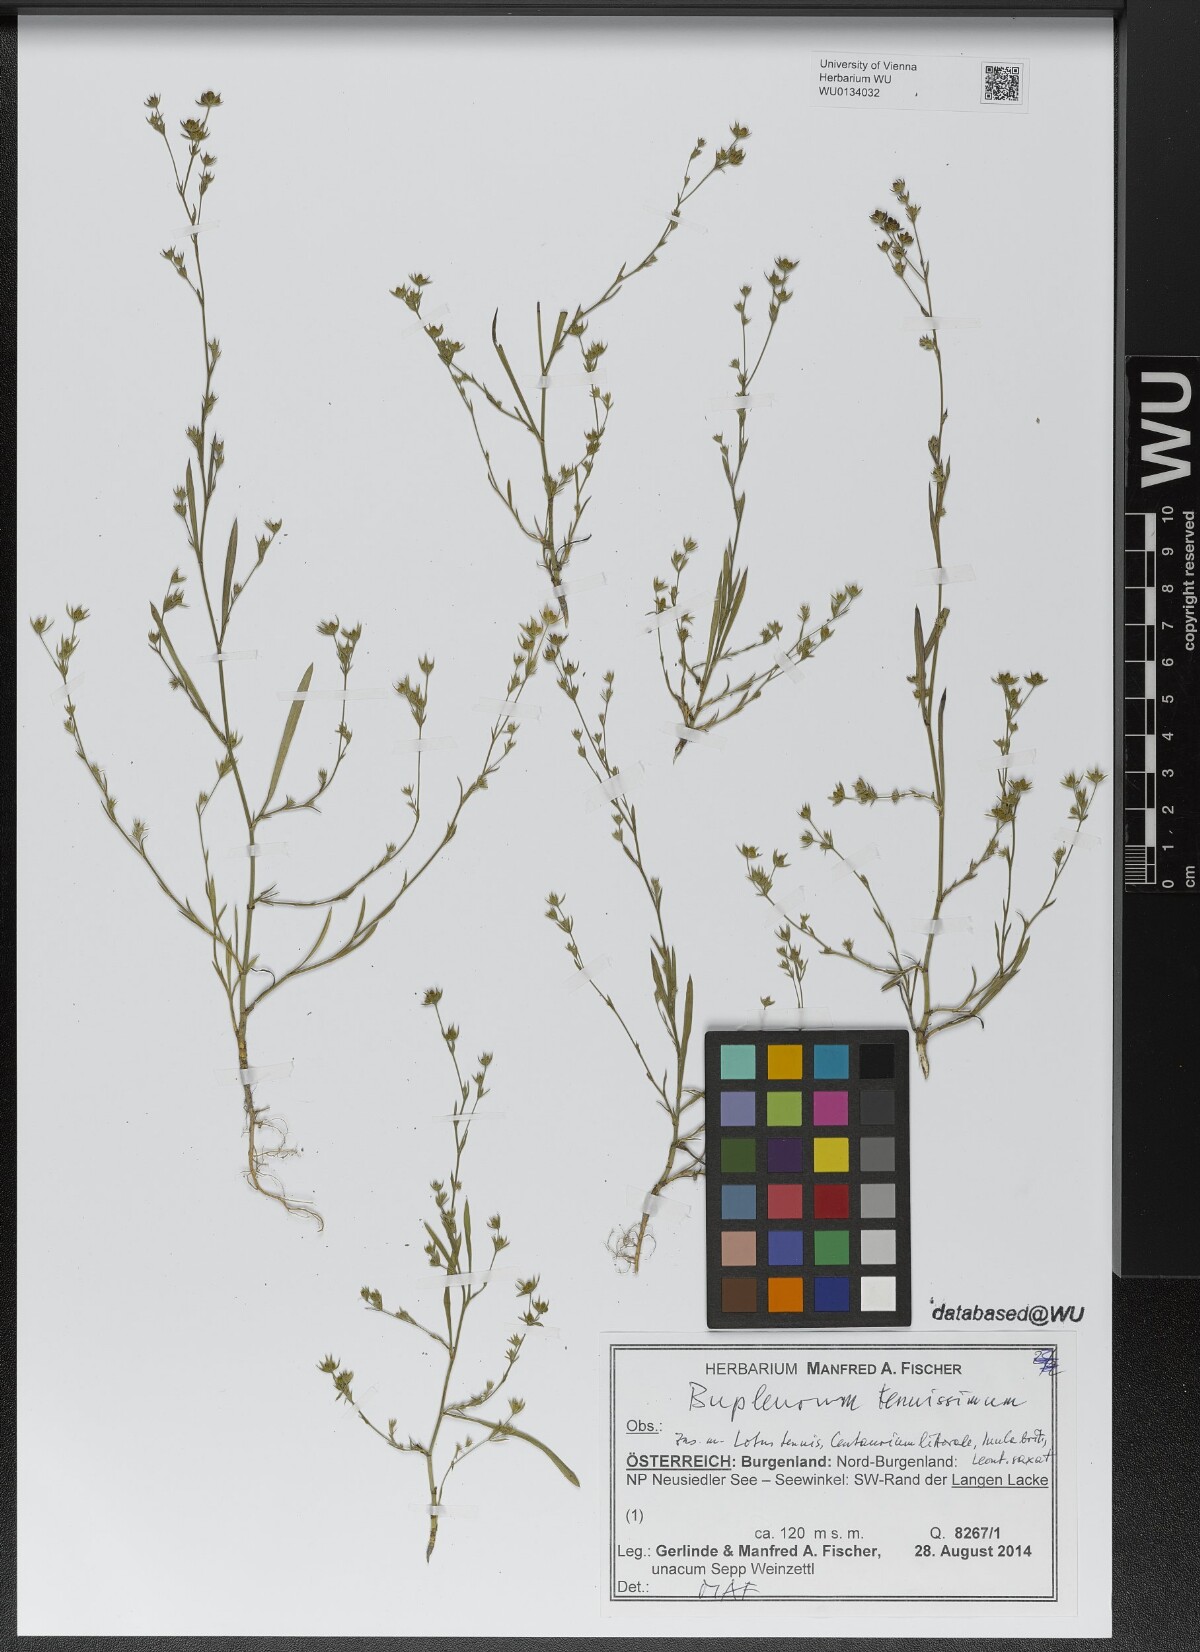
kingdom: Plantae
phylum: Tracheophyta
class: Magnoliopsida
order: Apiales
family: Apiaceae
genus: Bupleurum
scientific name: Bupleurum tenuissimum
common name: Slender hare's-ear
